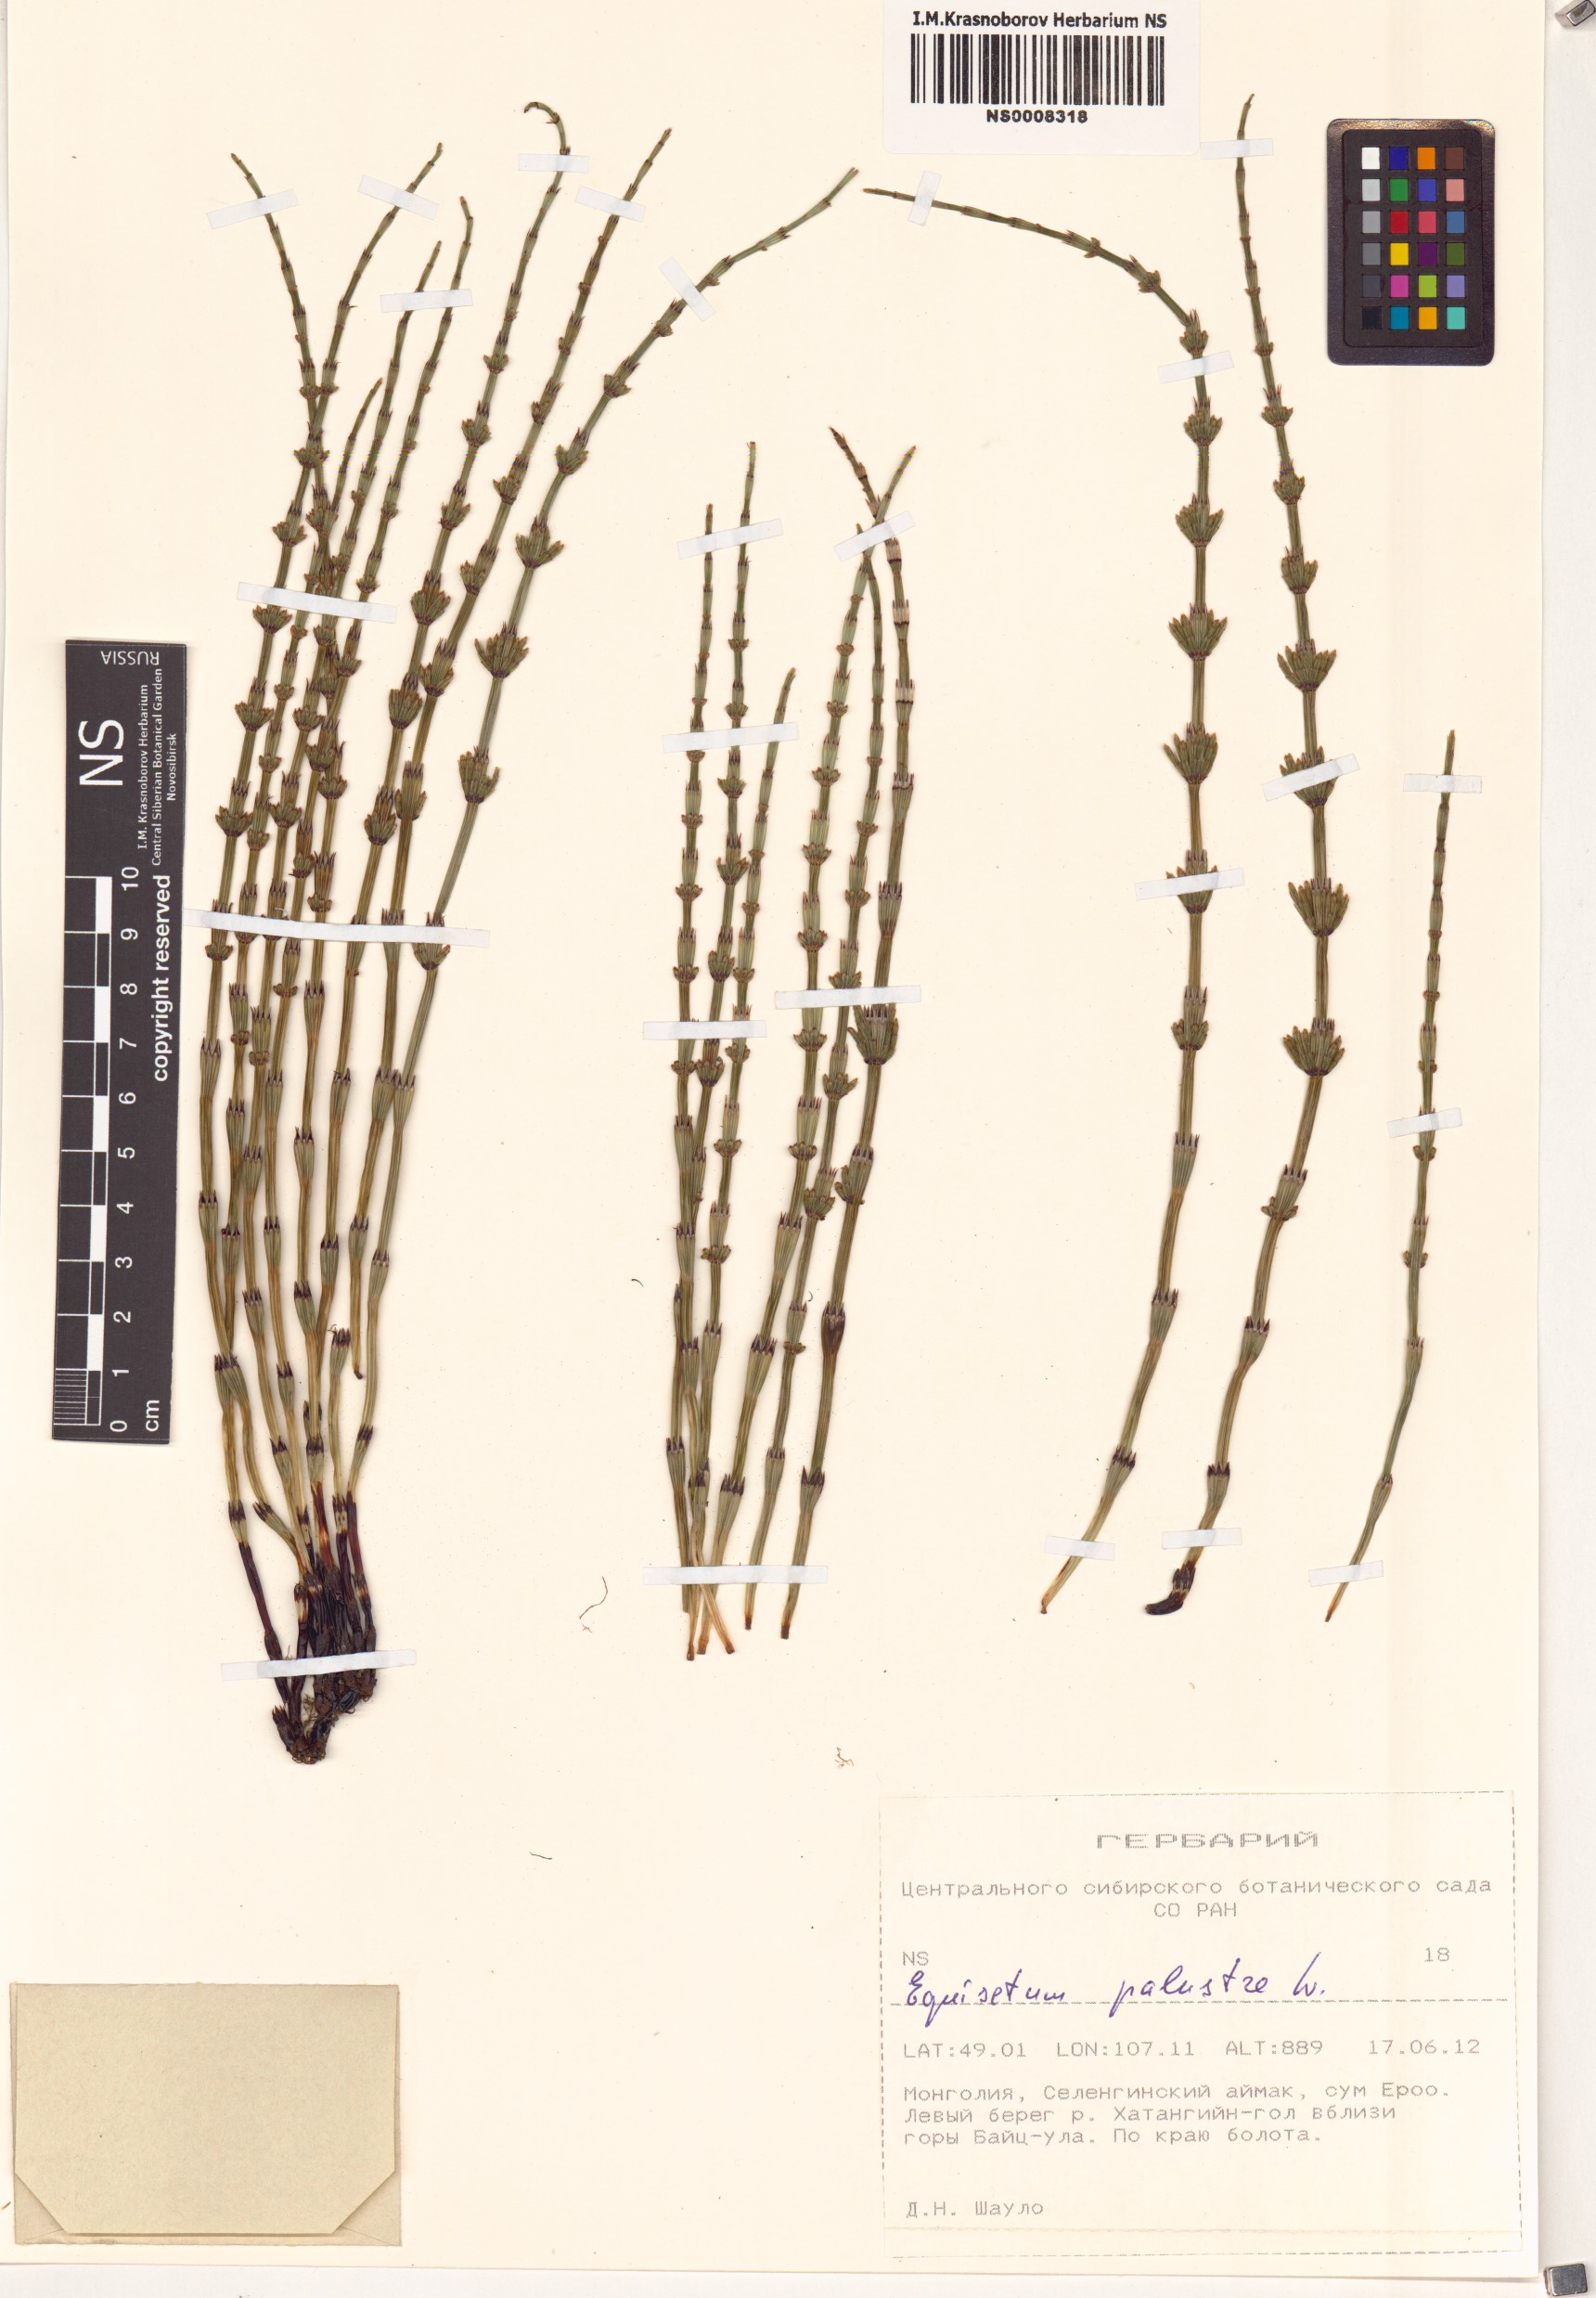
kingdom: Plantae
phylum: Tracheophyta
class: Polypodiopsida
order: Equisetales
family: Equisetaceae
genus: Equisetum
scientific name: Equisetum palustre
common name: Marsh horsetail
